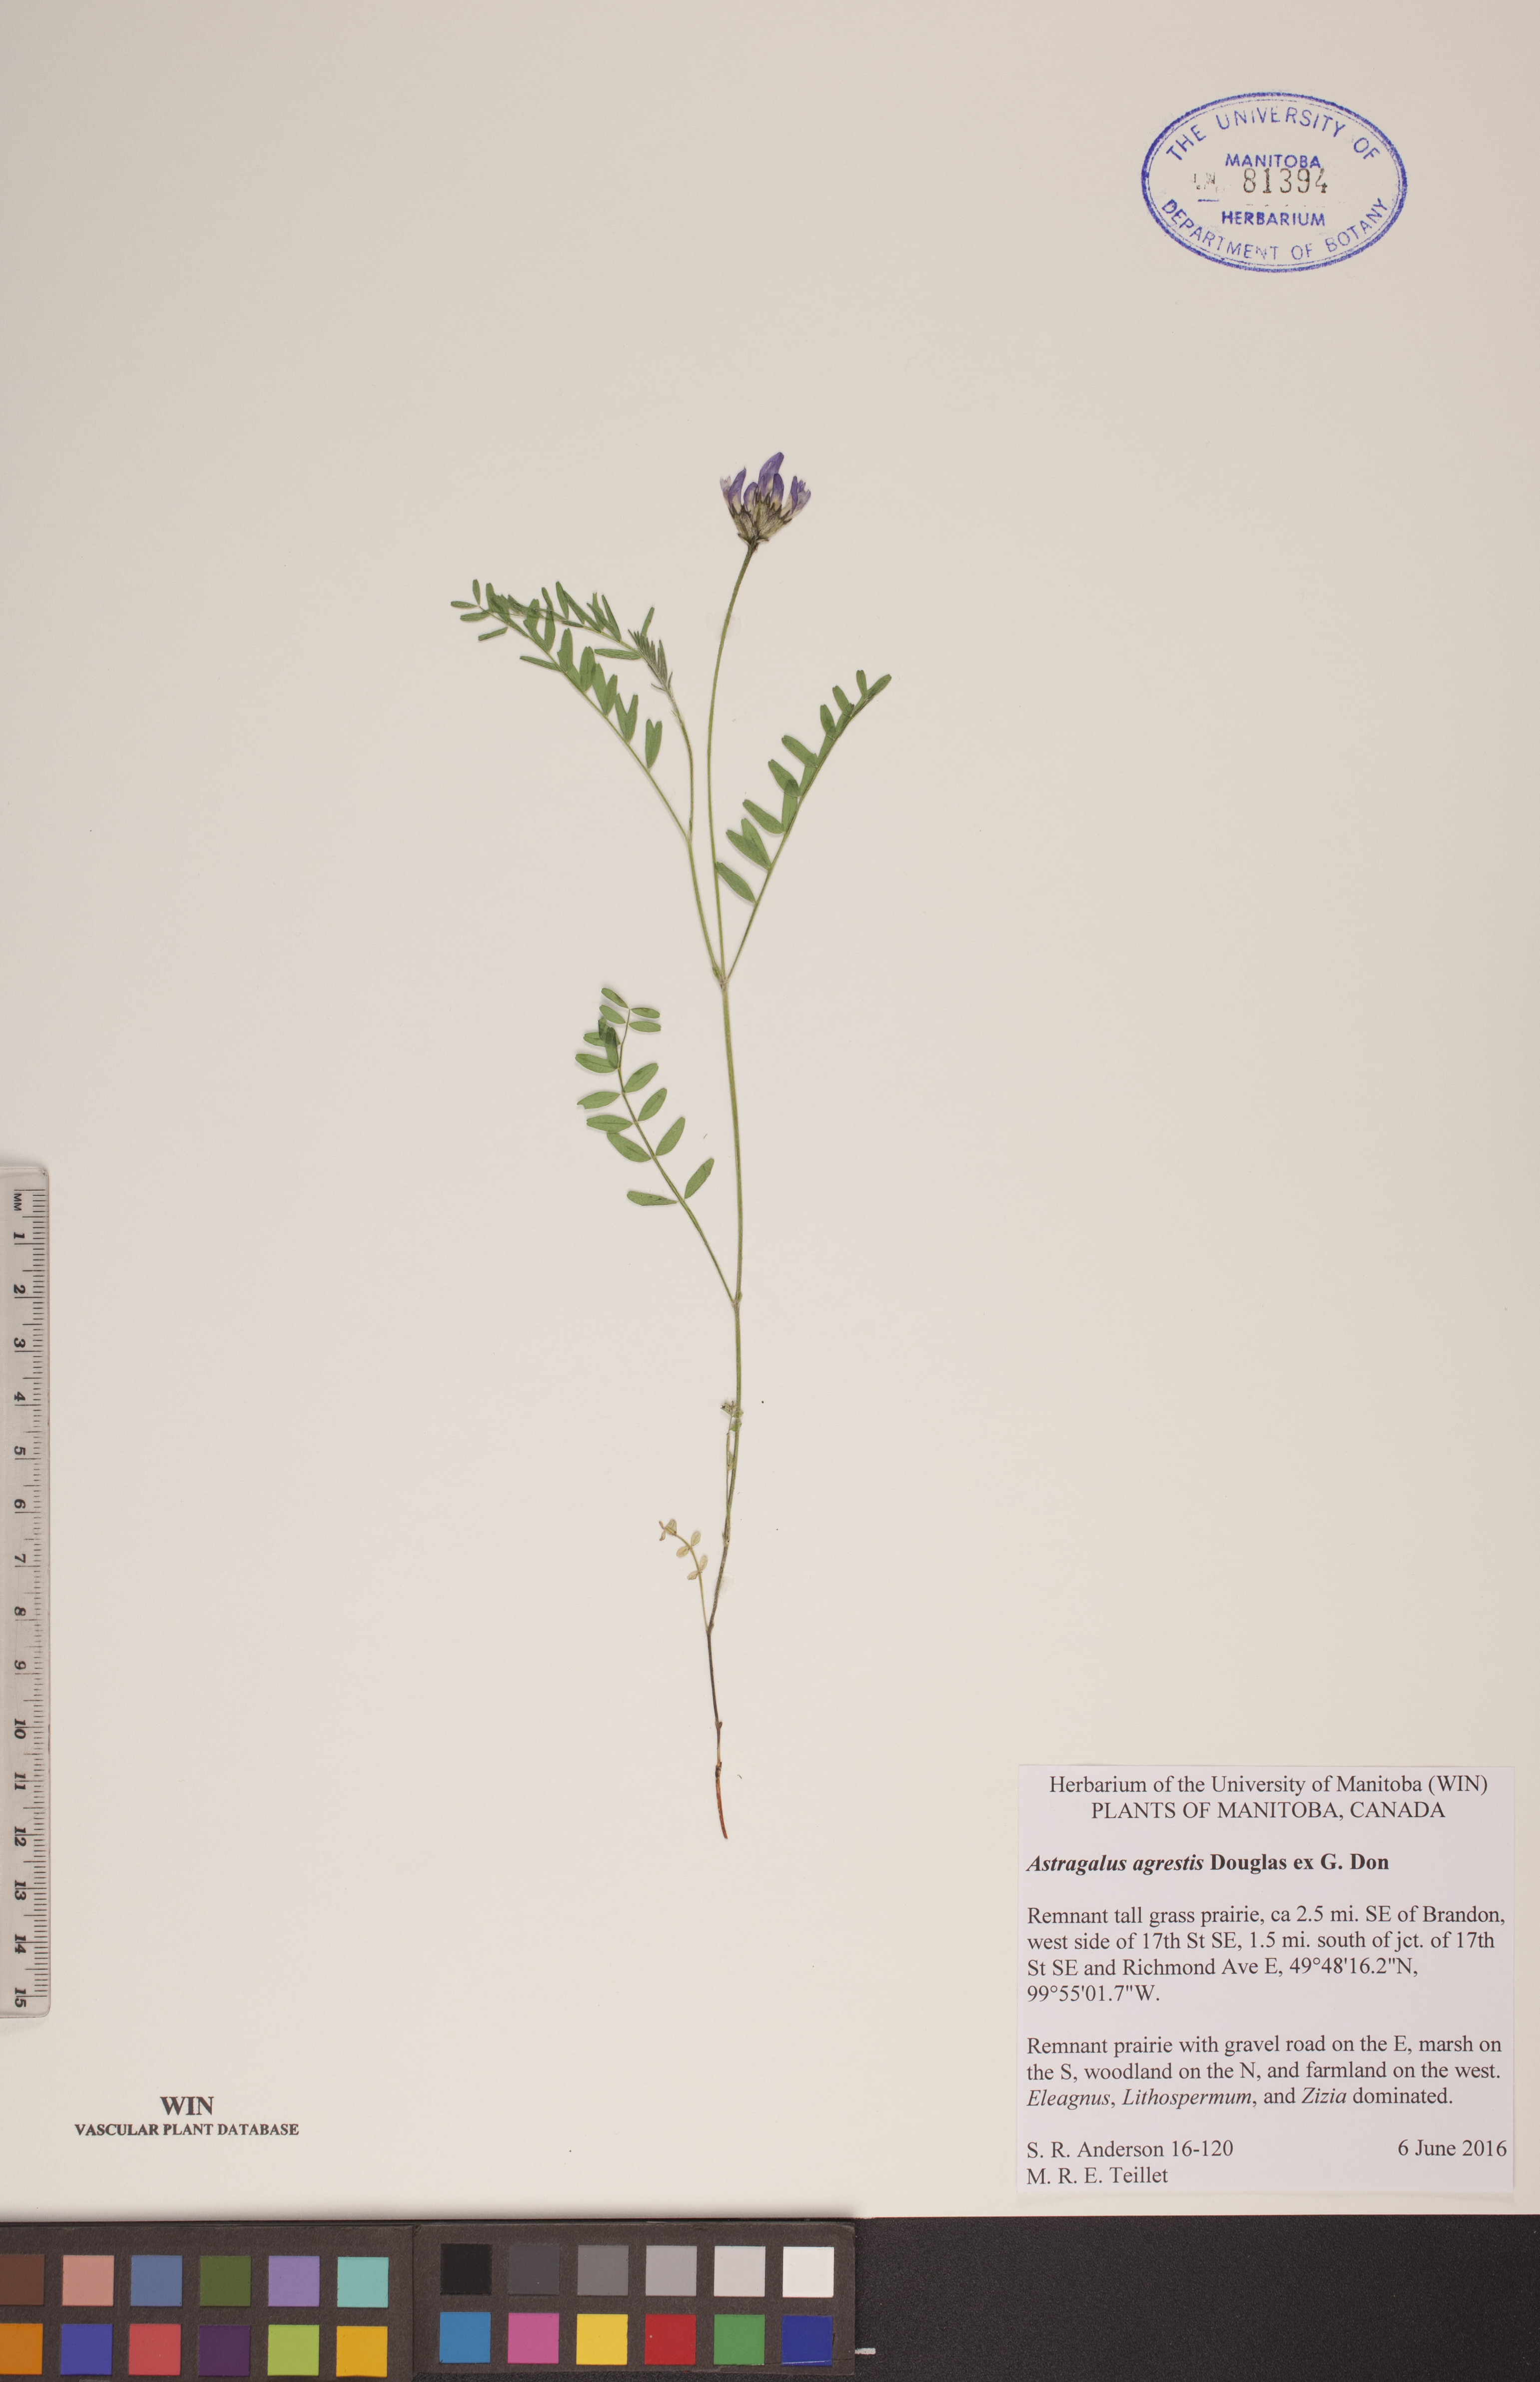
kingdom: Plantae
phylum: Tracheophyta
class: Magnoliopsida
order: Fabales
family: Fabaceae
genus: Astragalus
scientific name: Astragalus agrestis
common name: Field milk-vetch
